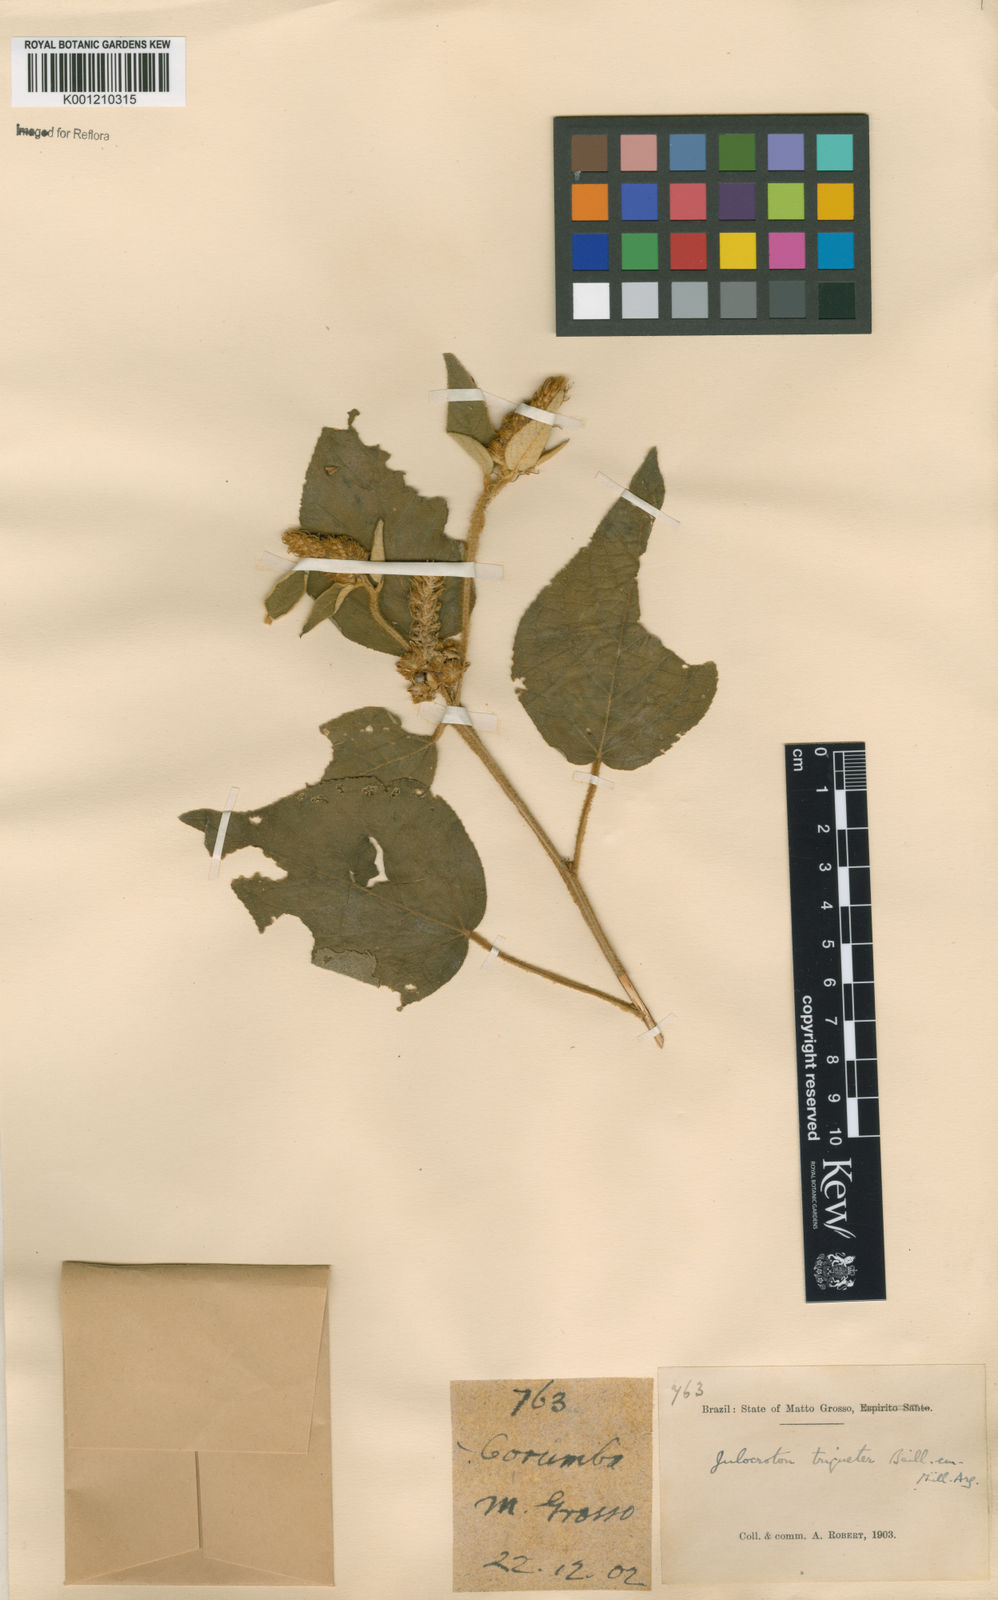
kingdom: Plantae
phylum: Tracheophyta
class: Magnoliopsida
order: Malpighiales
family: Euphorbiaceae
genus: Croton
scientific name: Croton triqueter
